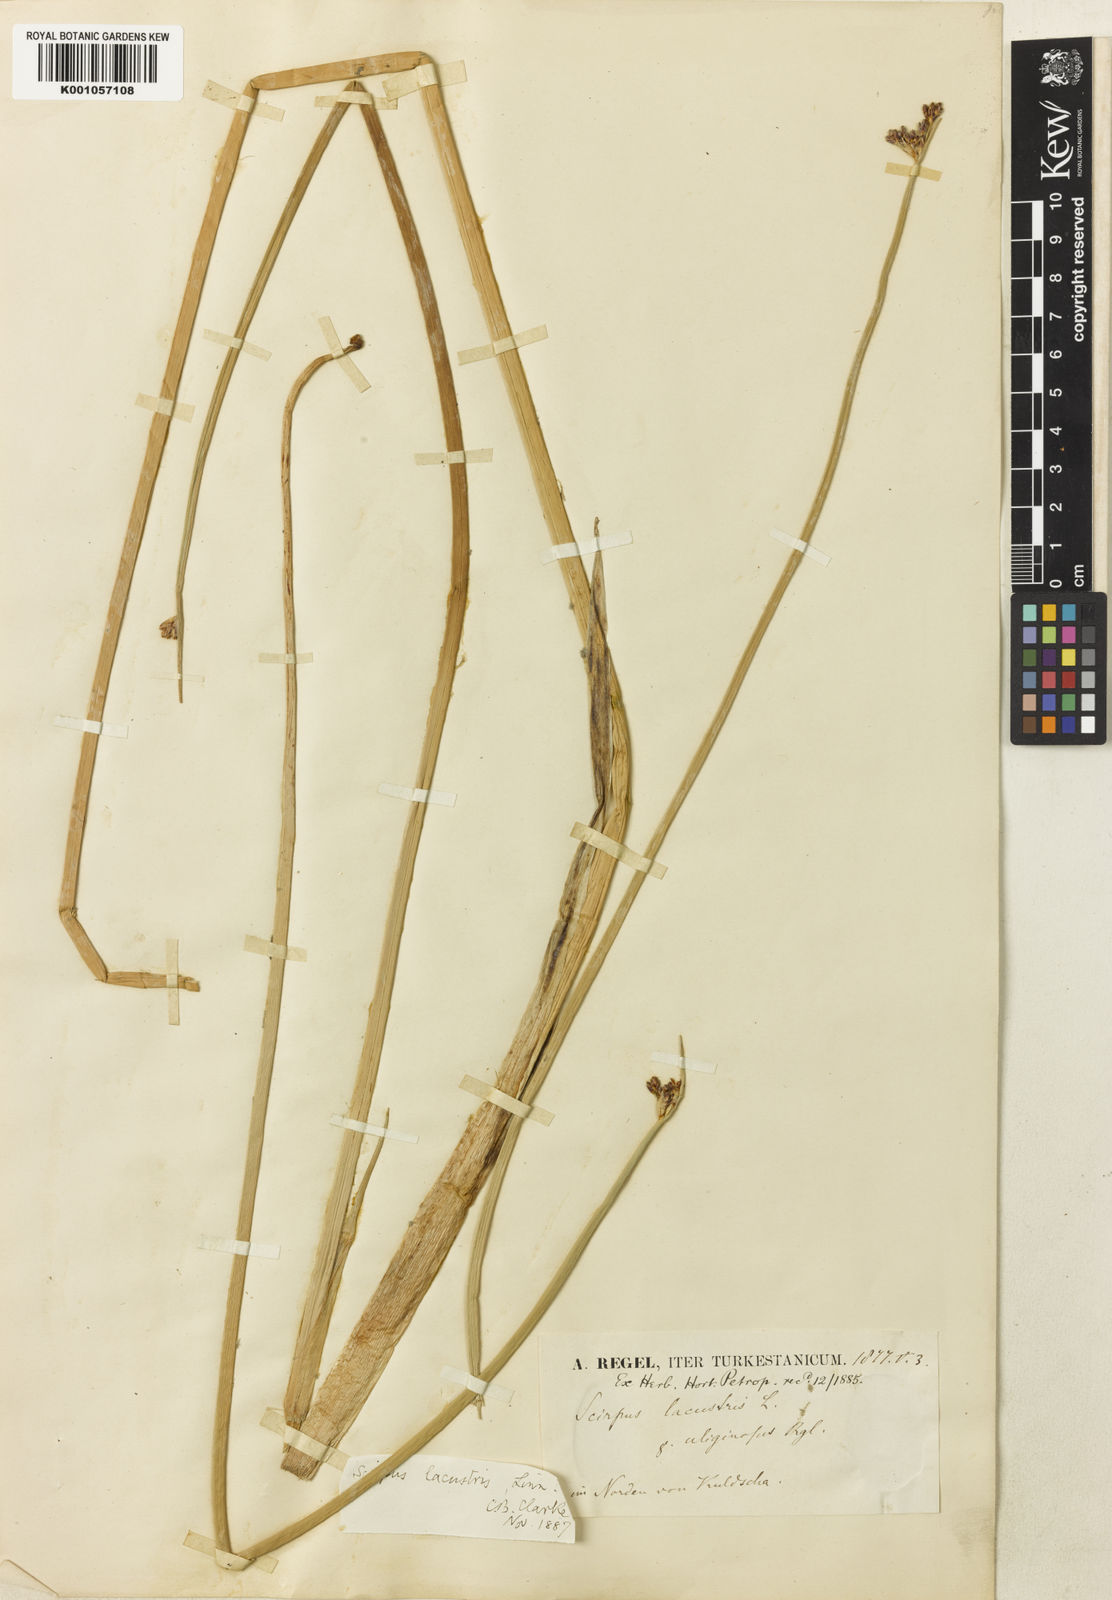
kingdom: Plantae
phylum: Tracheophyta
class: Liliopsida
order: Poales
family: Cyperaceae
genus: Schoenoplectus
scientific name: Schoenoplectus lacustris
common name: Common club-rush
